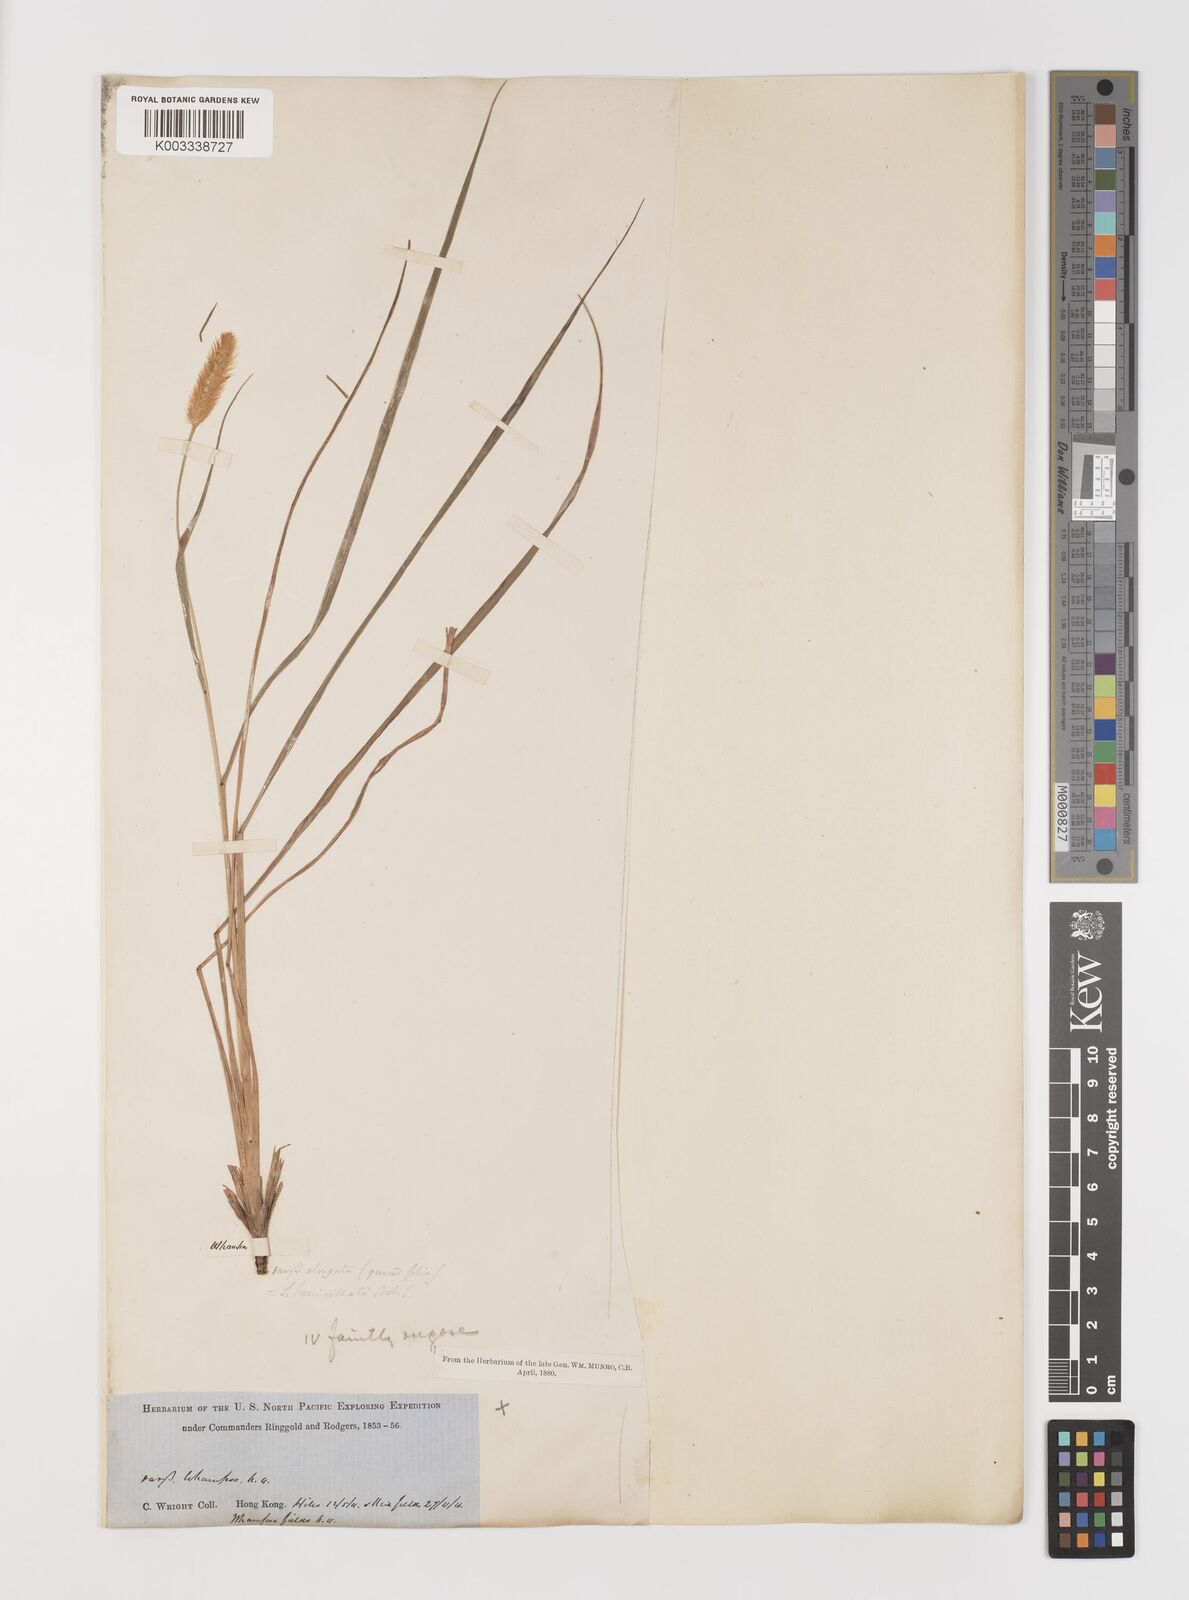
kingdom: Plantae
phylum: Tracheophyta
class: Liliopsida
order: Poales
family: Poaceae
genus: Setaria
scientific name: Setaria parviflora
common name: Knotroot bristle-grass
